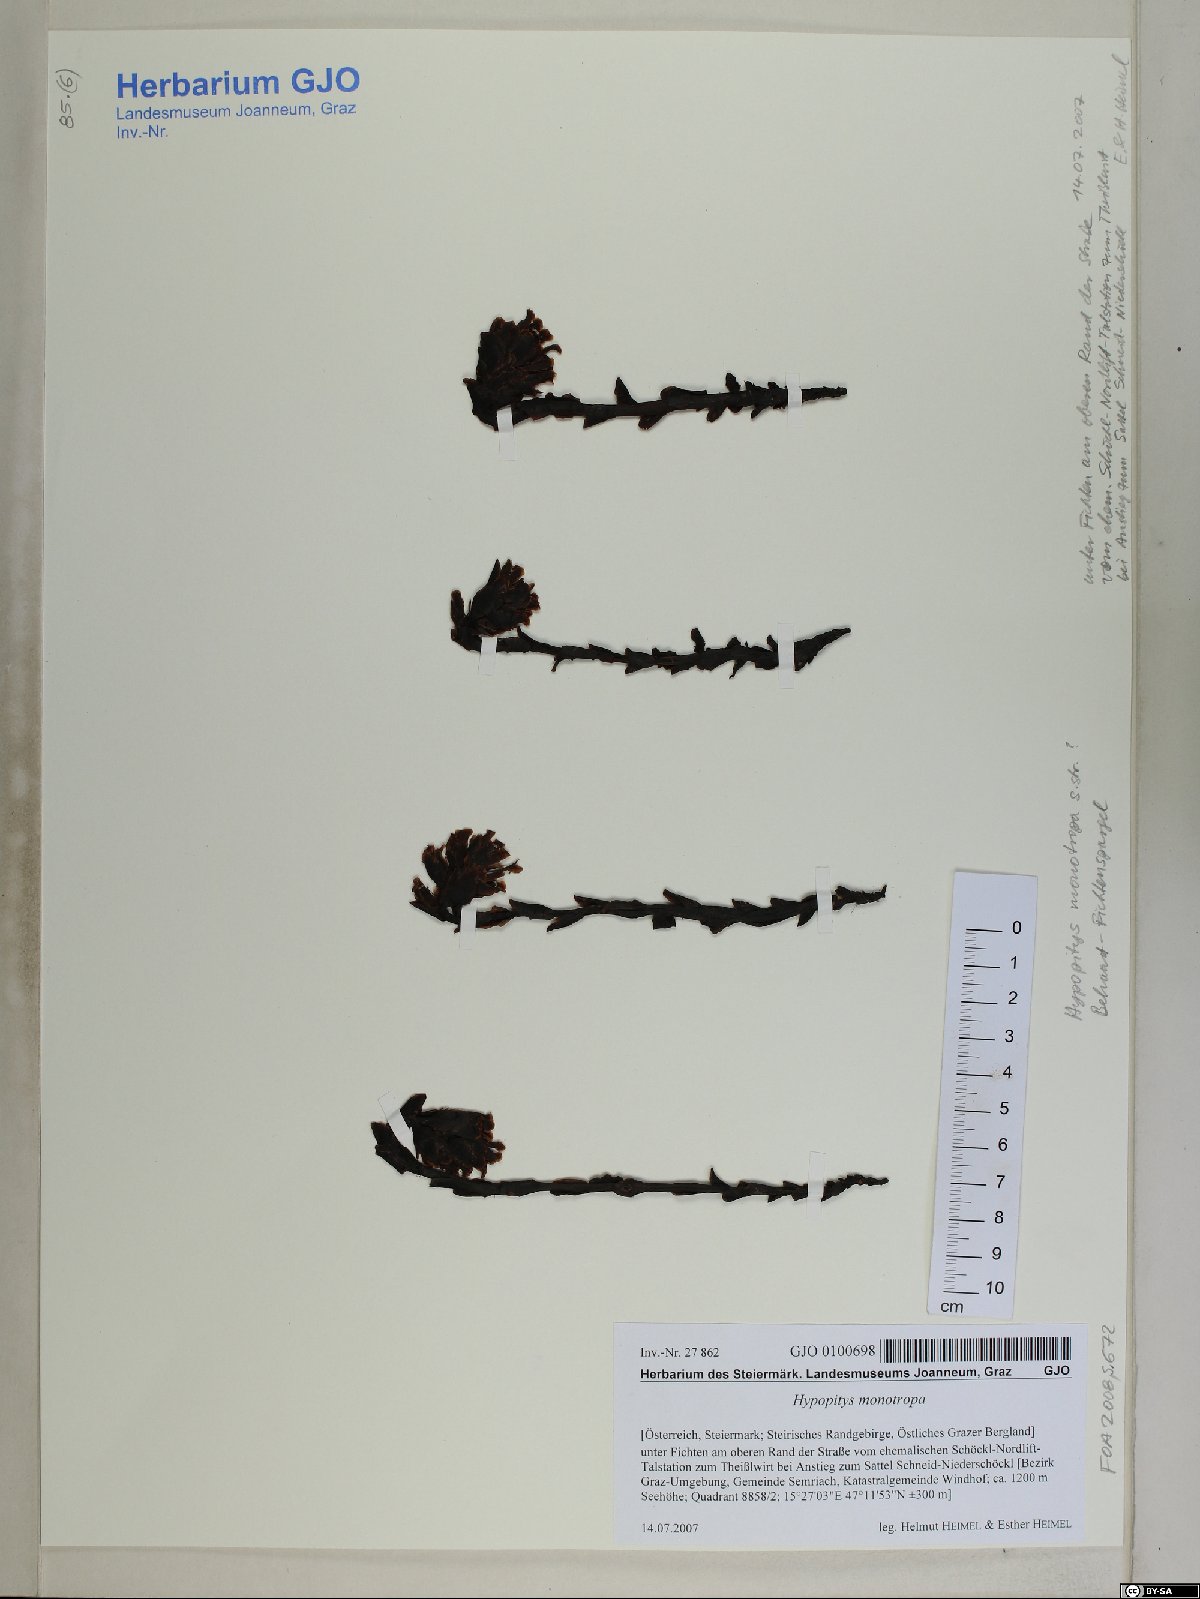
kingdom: Plantae
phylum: Tracheophyta
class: Magnoliopsida
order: Ericales
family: Ericaceae
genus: Hypopitys
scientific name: Hypopitys monotropa
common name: Yellow bird's-nest
